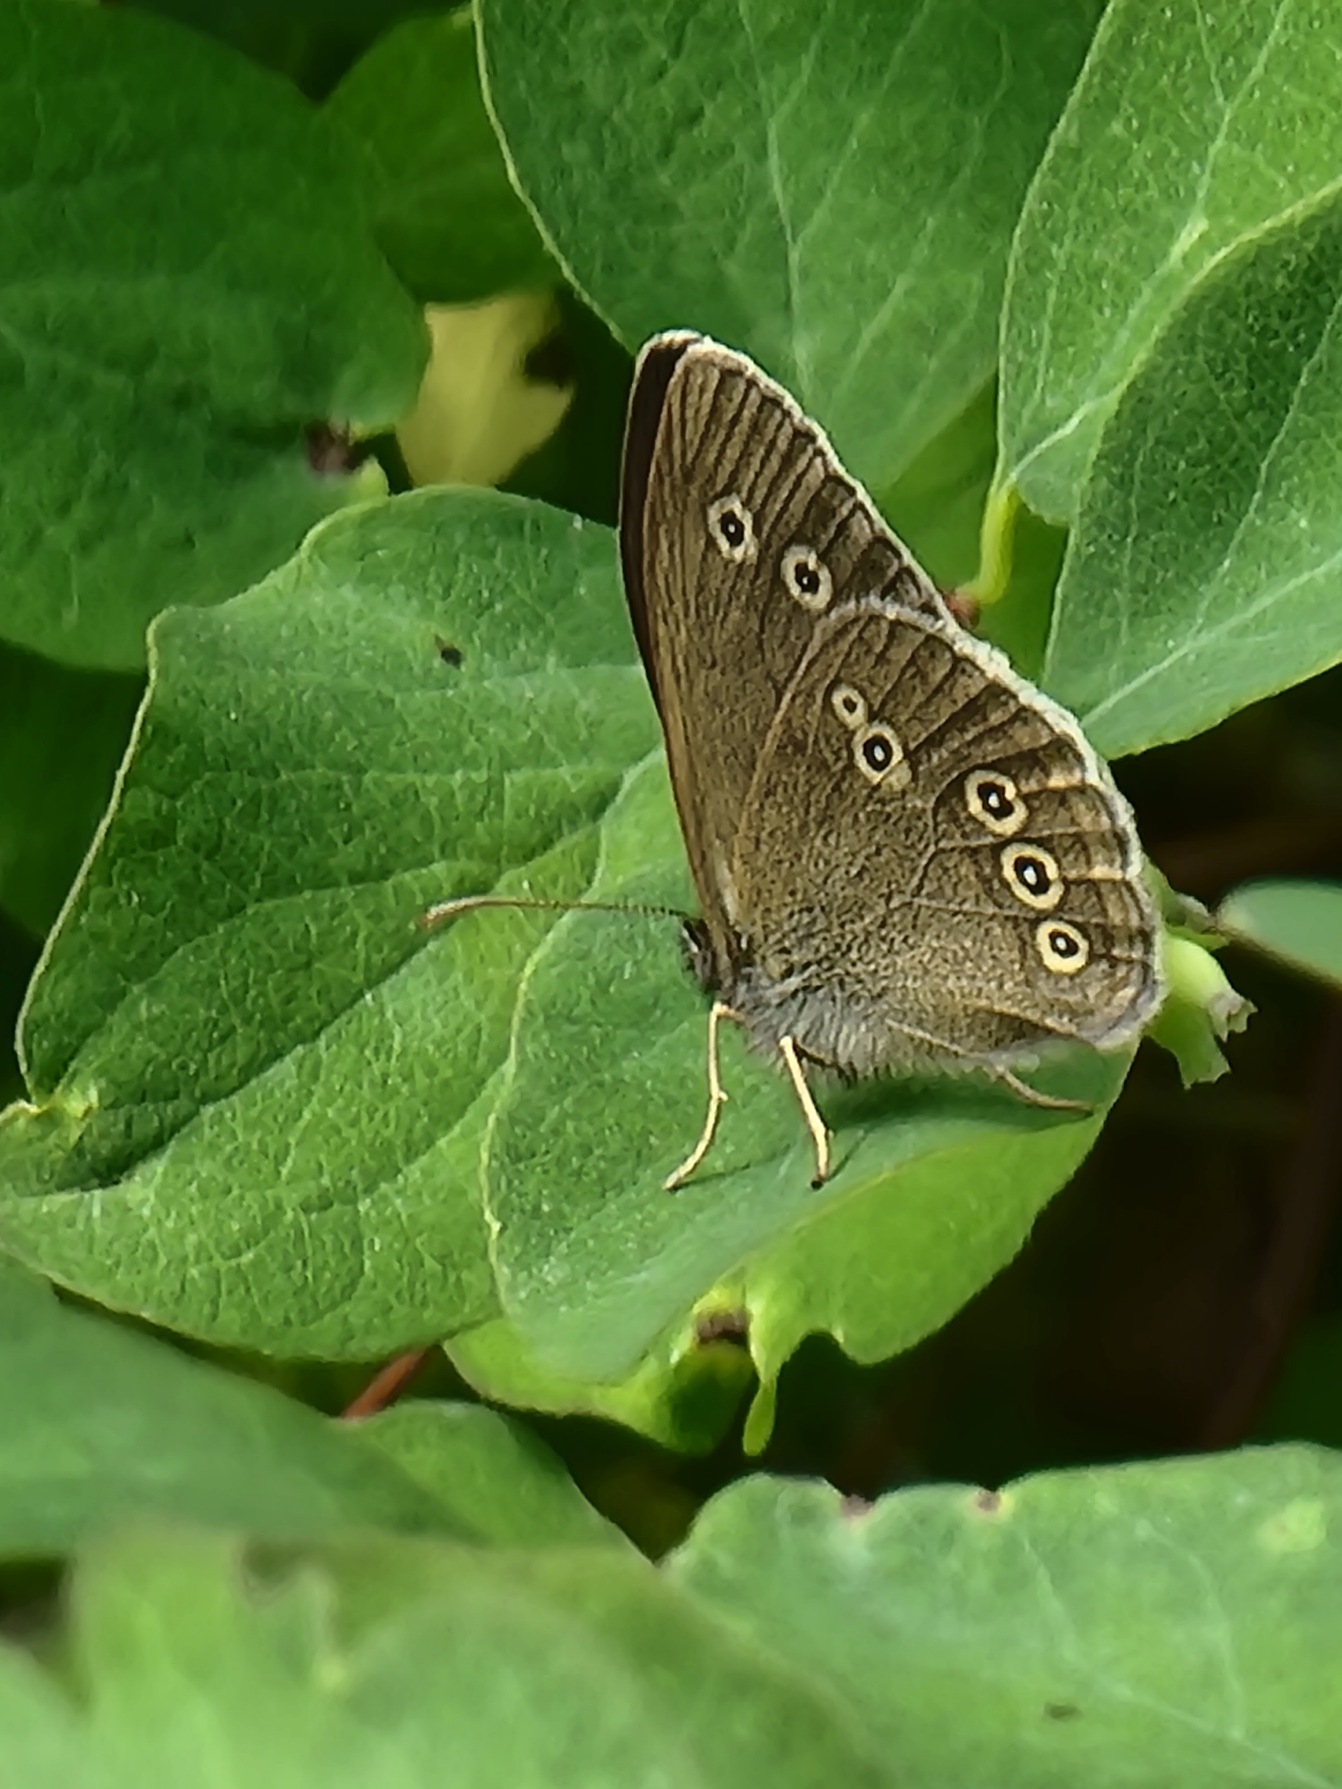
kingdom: Animalia
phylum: Arthropoda
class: Insecta
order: Lepidoptera
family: Nymphalidae
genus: Aphantopus
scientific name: Aphantopus hyperantus
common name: Engrandøje
